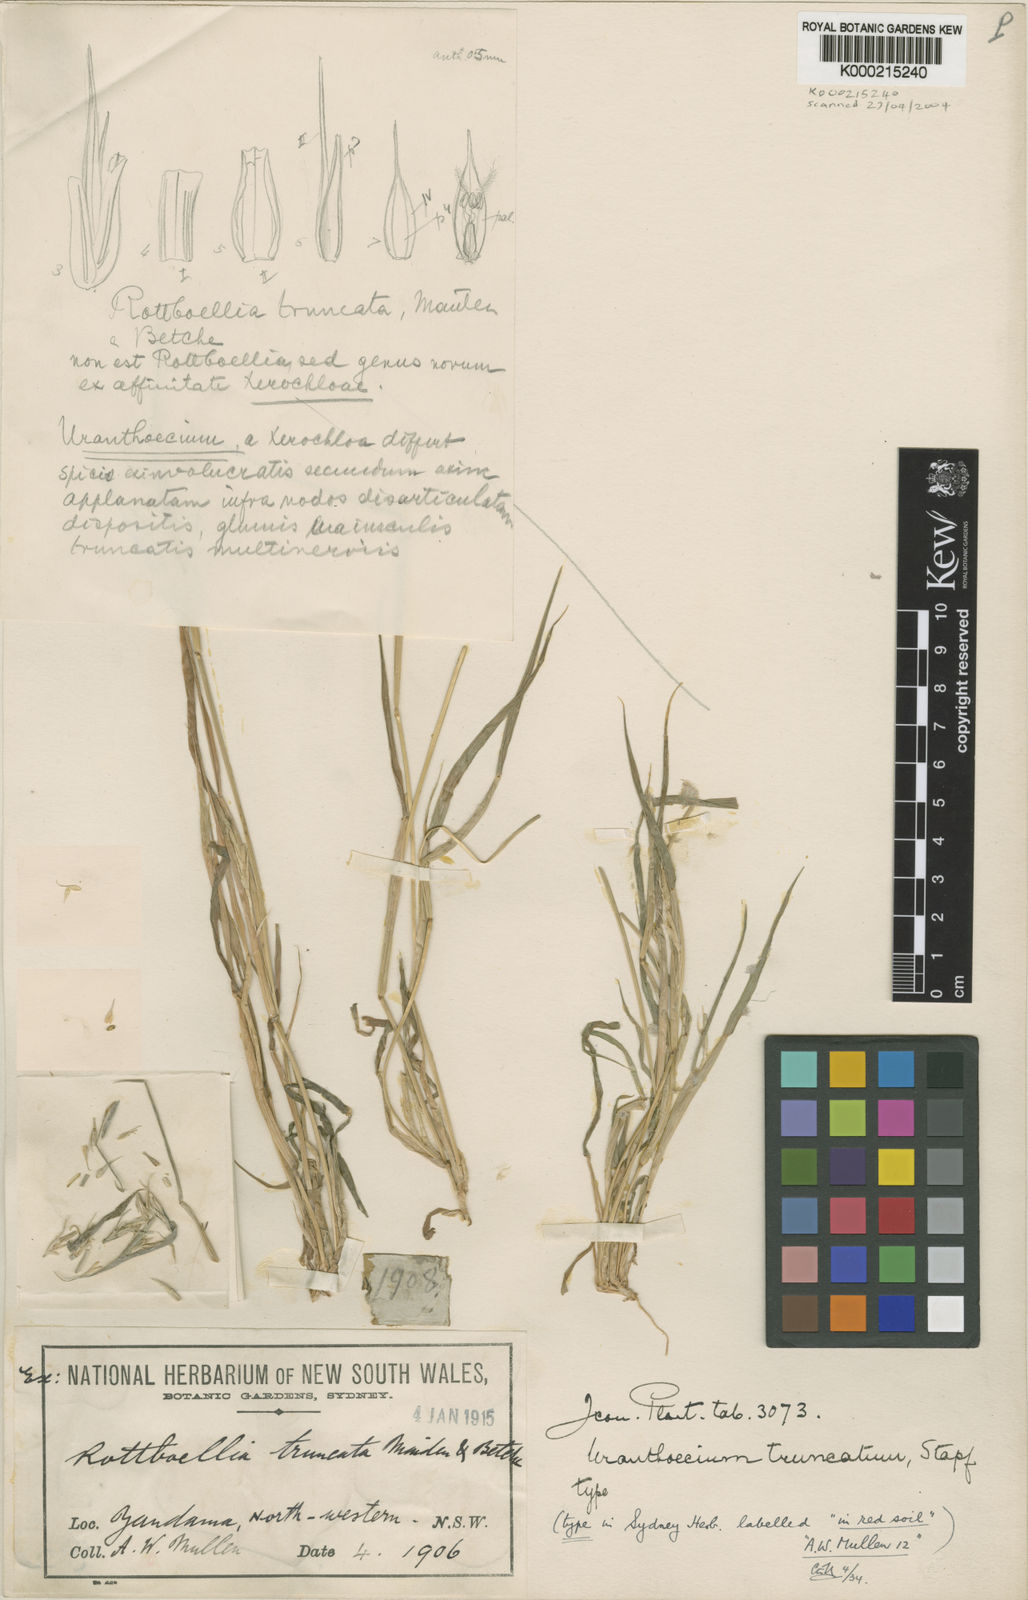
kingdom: Plantae
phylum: Tracheophyta
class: Liliopsida
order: Poales
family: Poaceae
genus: Uranthoecium
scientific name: Uranthoecium truncatum
